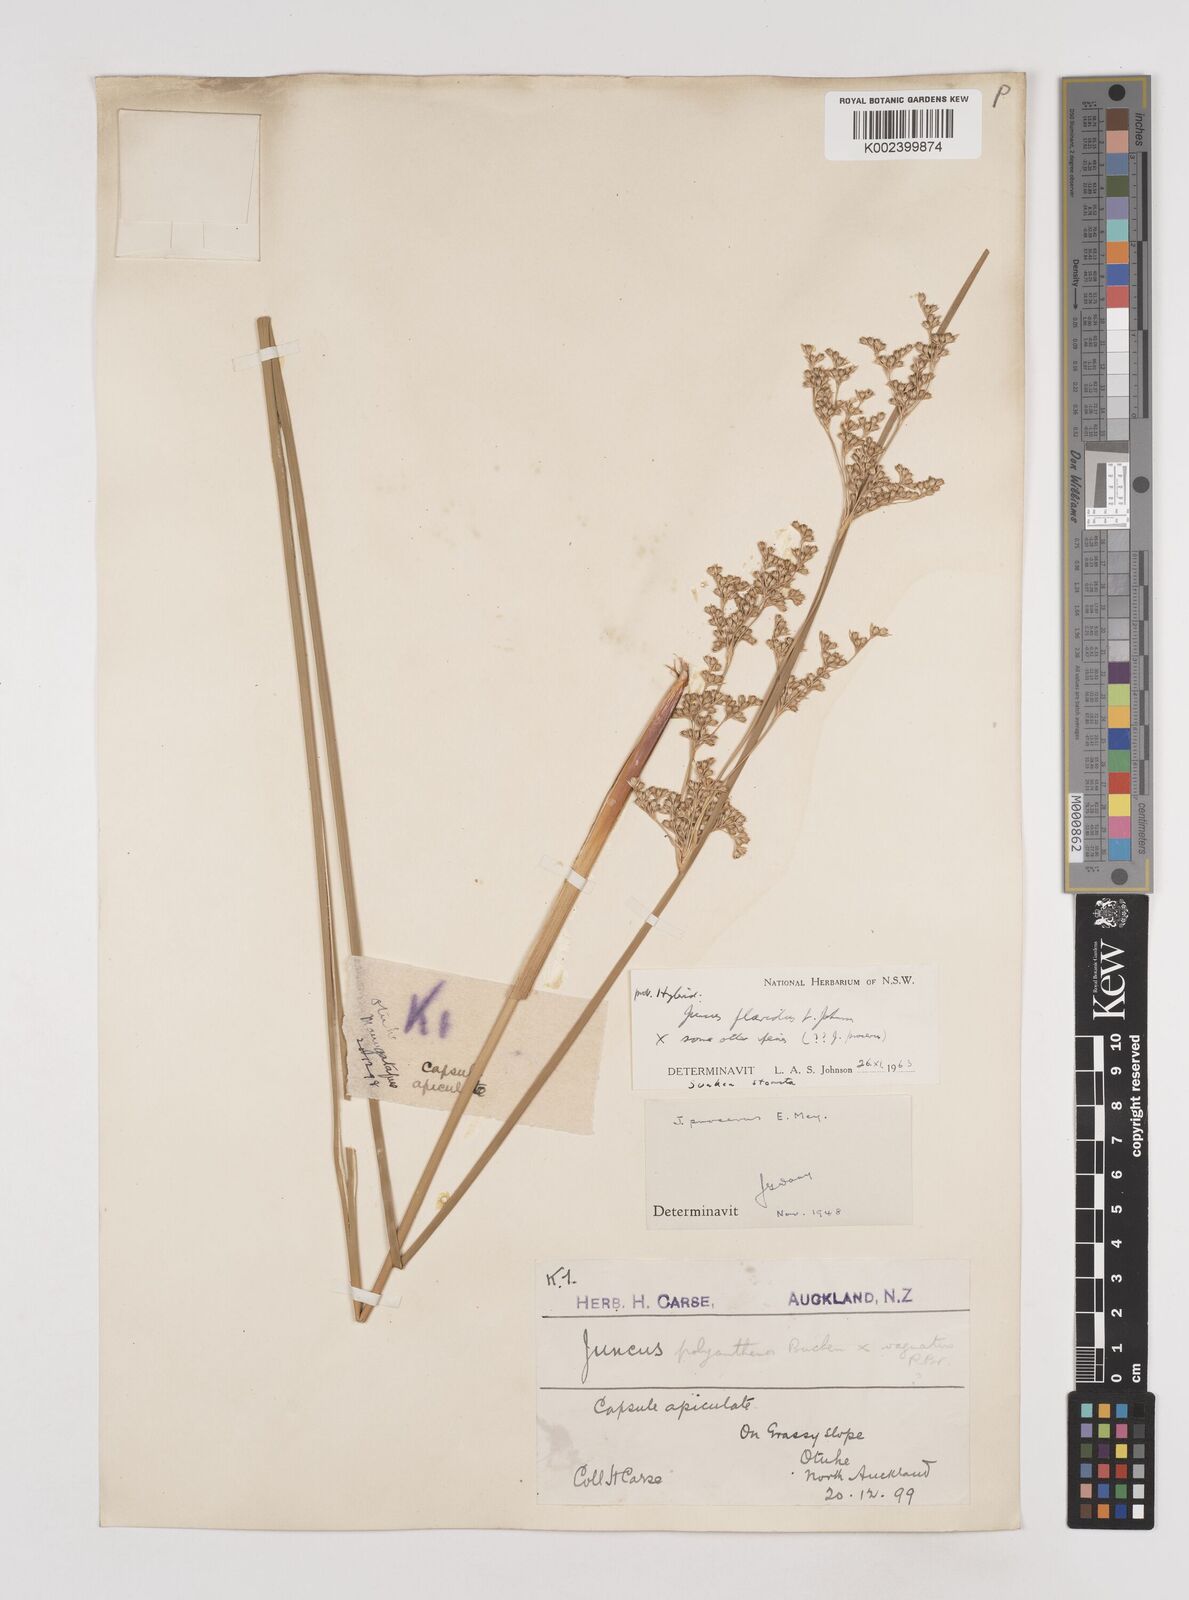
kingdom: Plantae
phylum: Tracheophyta
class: Liliopsida
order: Poales
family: Juncaceae
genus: Juncus
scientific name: Juncus flavidus
